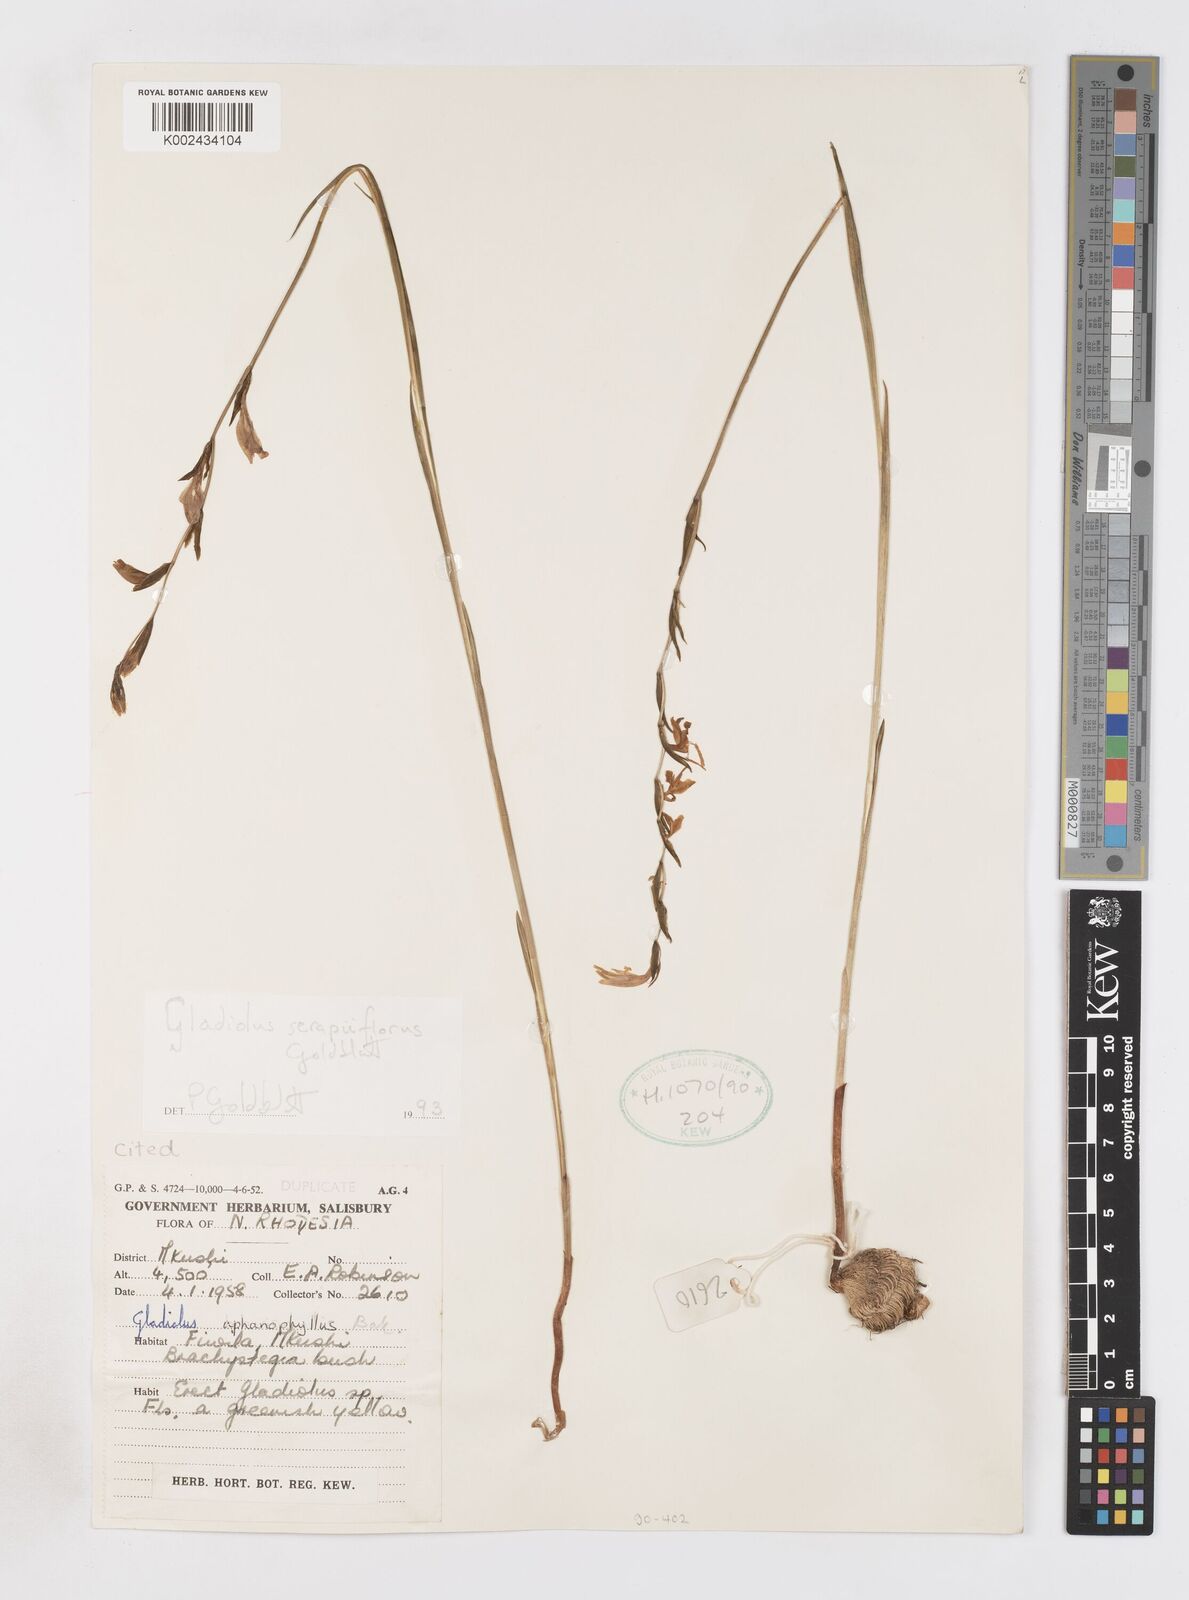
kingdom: Plantae
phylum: Tracheophyta
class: Liliopsida
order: Asparagales
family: Iridaceae
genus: Gladiolus
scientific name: Gladiolus serapiiflorus
